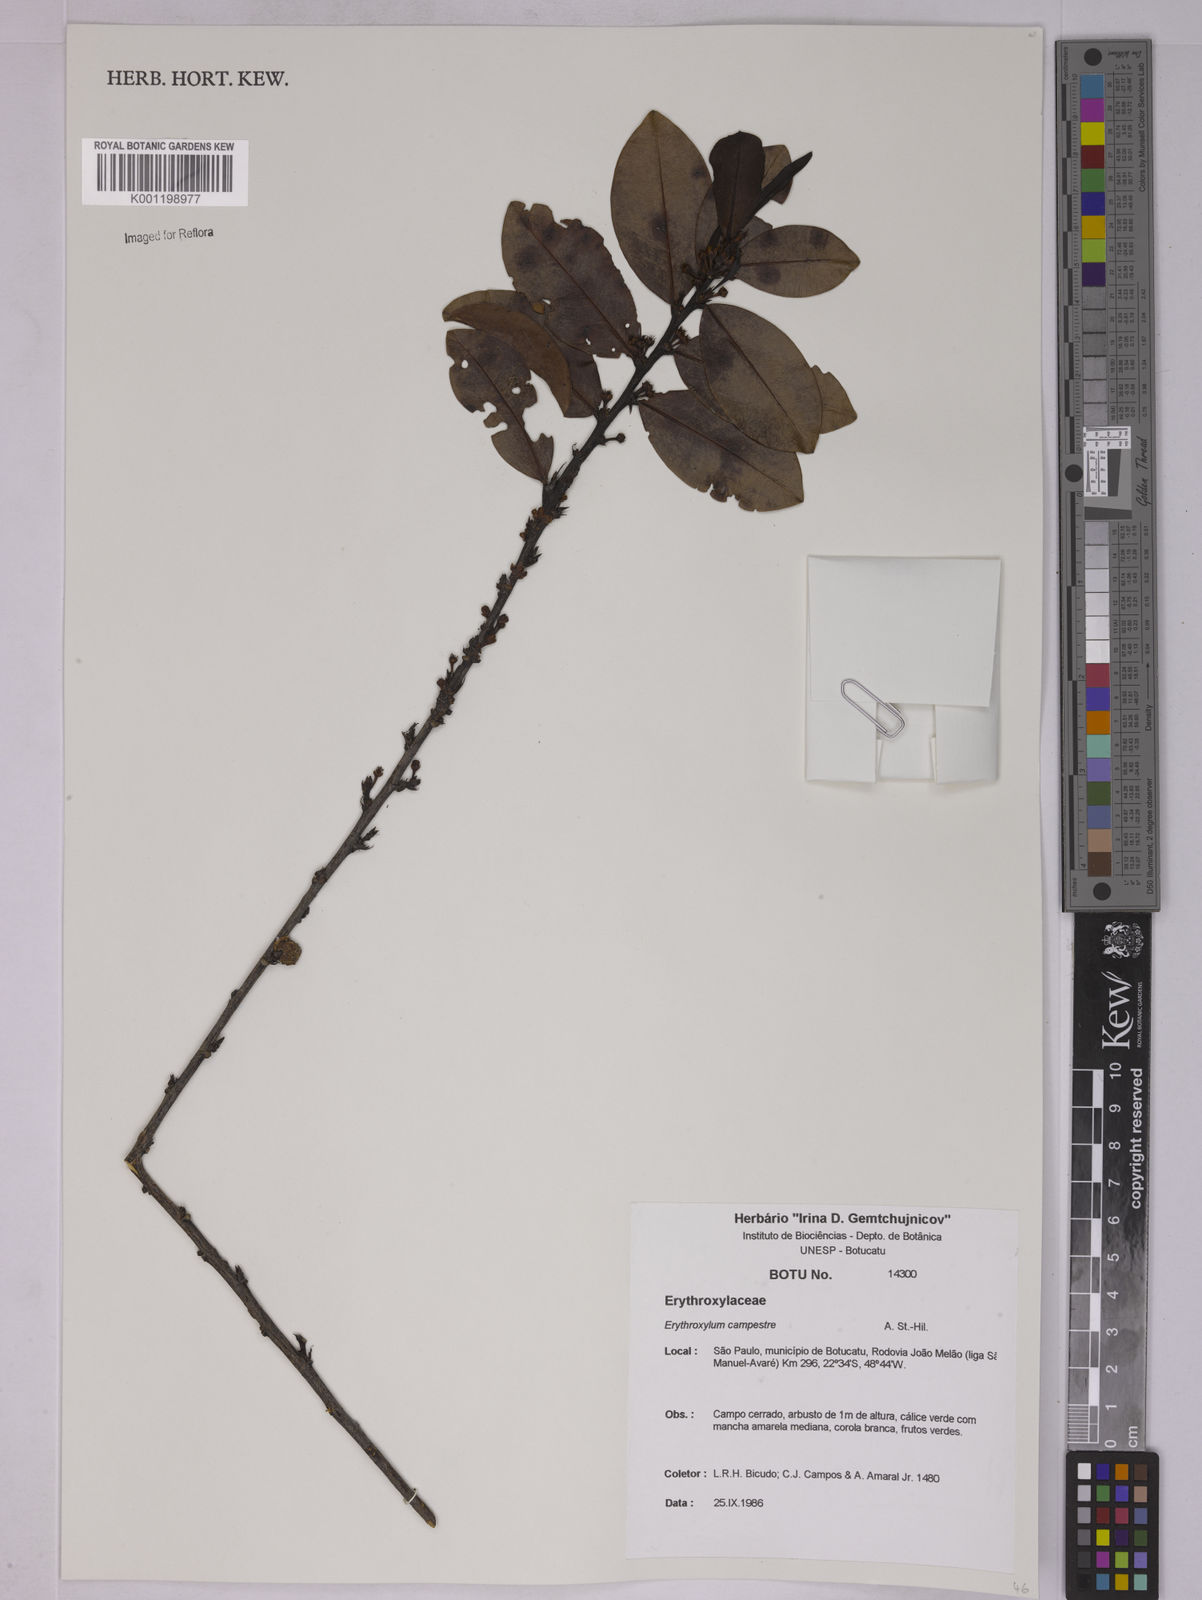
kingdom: Plantae
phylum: Tracheophyta
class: Magnoliopsida
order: Malpighiales
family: Erythroxylaceae
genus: Erythroxylum
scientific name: Erythroxylum campestre
